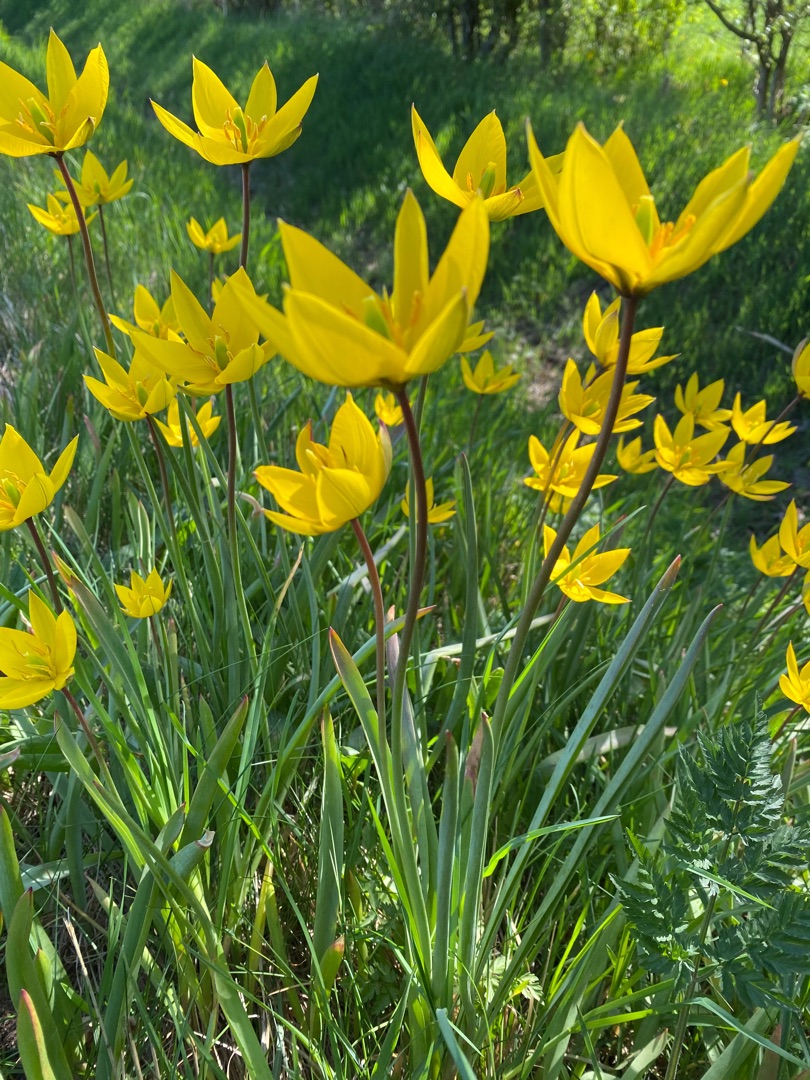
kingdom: Plantae
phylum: Tracheophyta
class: Liliopsida
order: Liliales
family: Liliaceae
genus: Tulipa
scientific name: Tulipa sylvestris
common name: Vild tulipan
